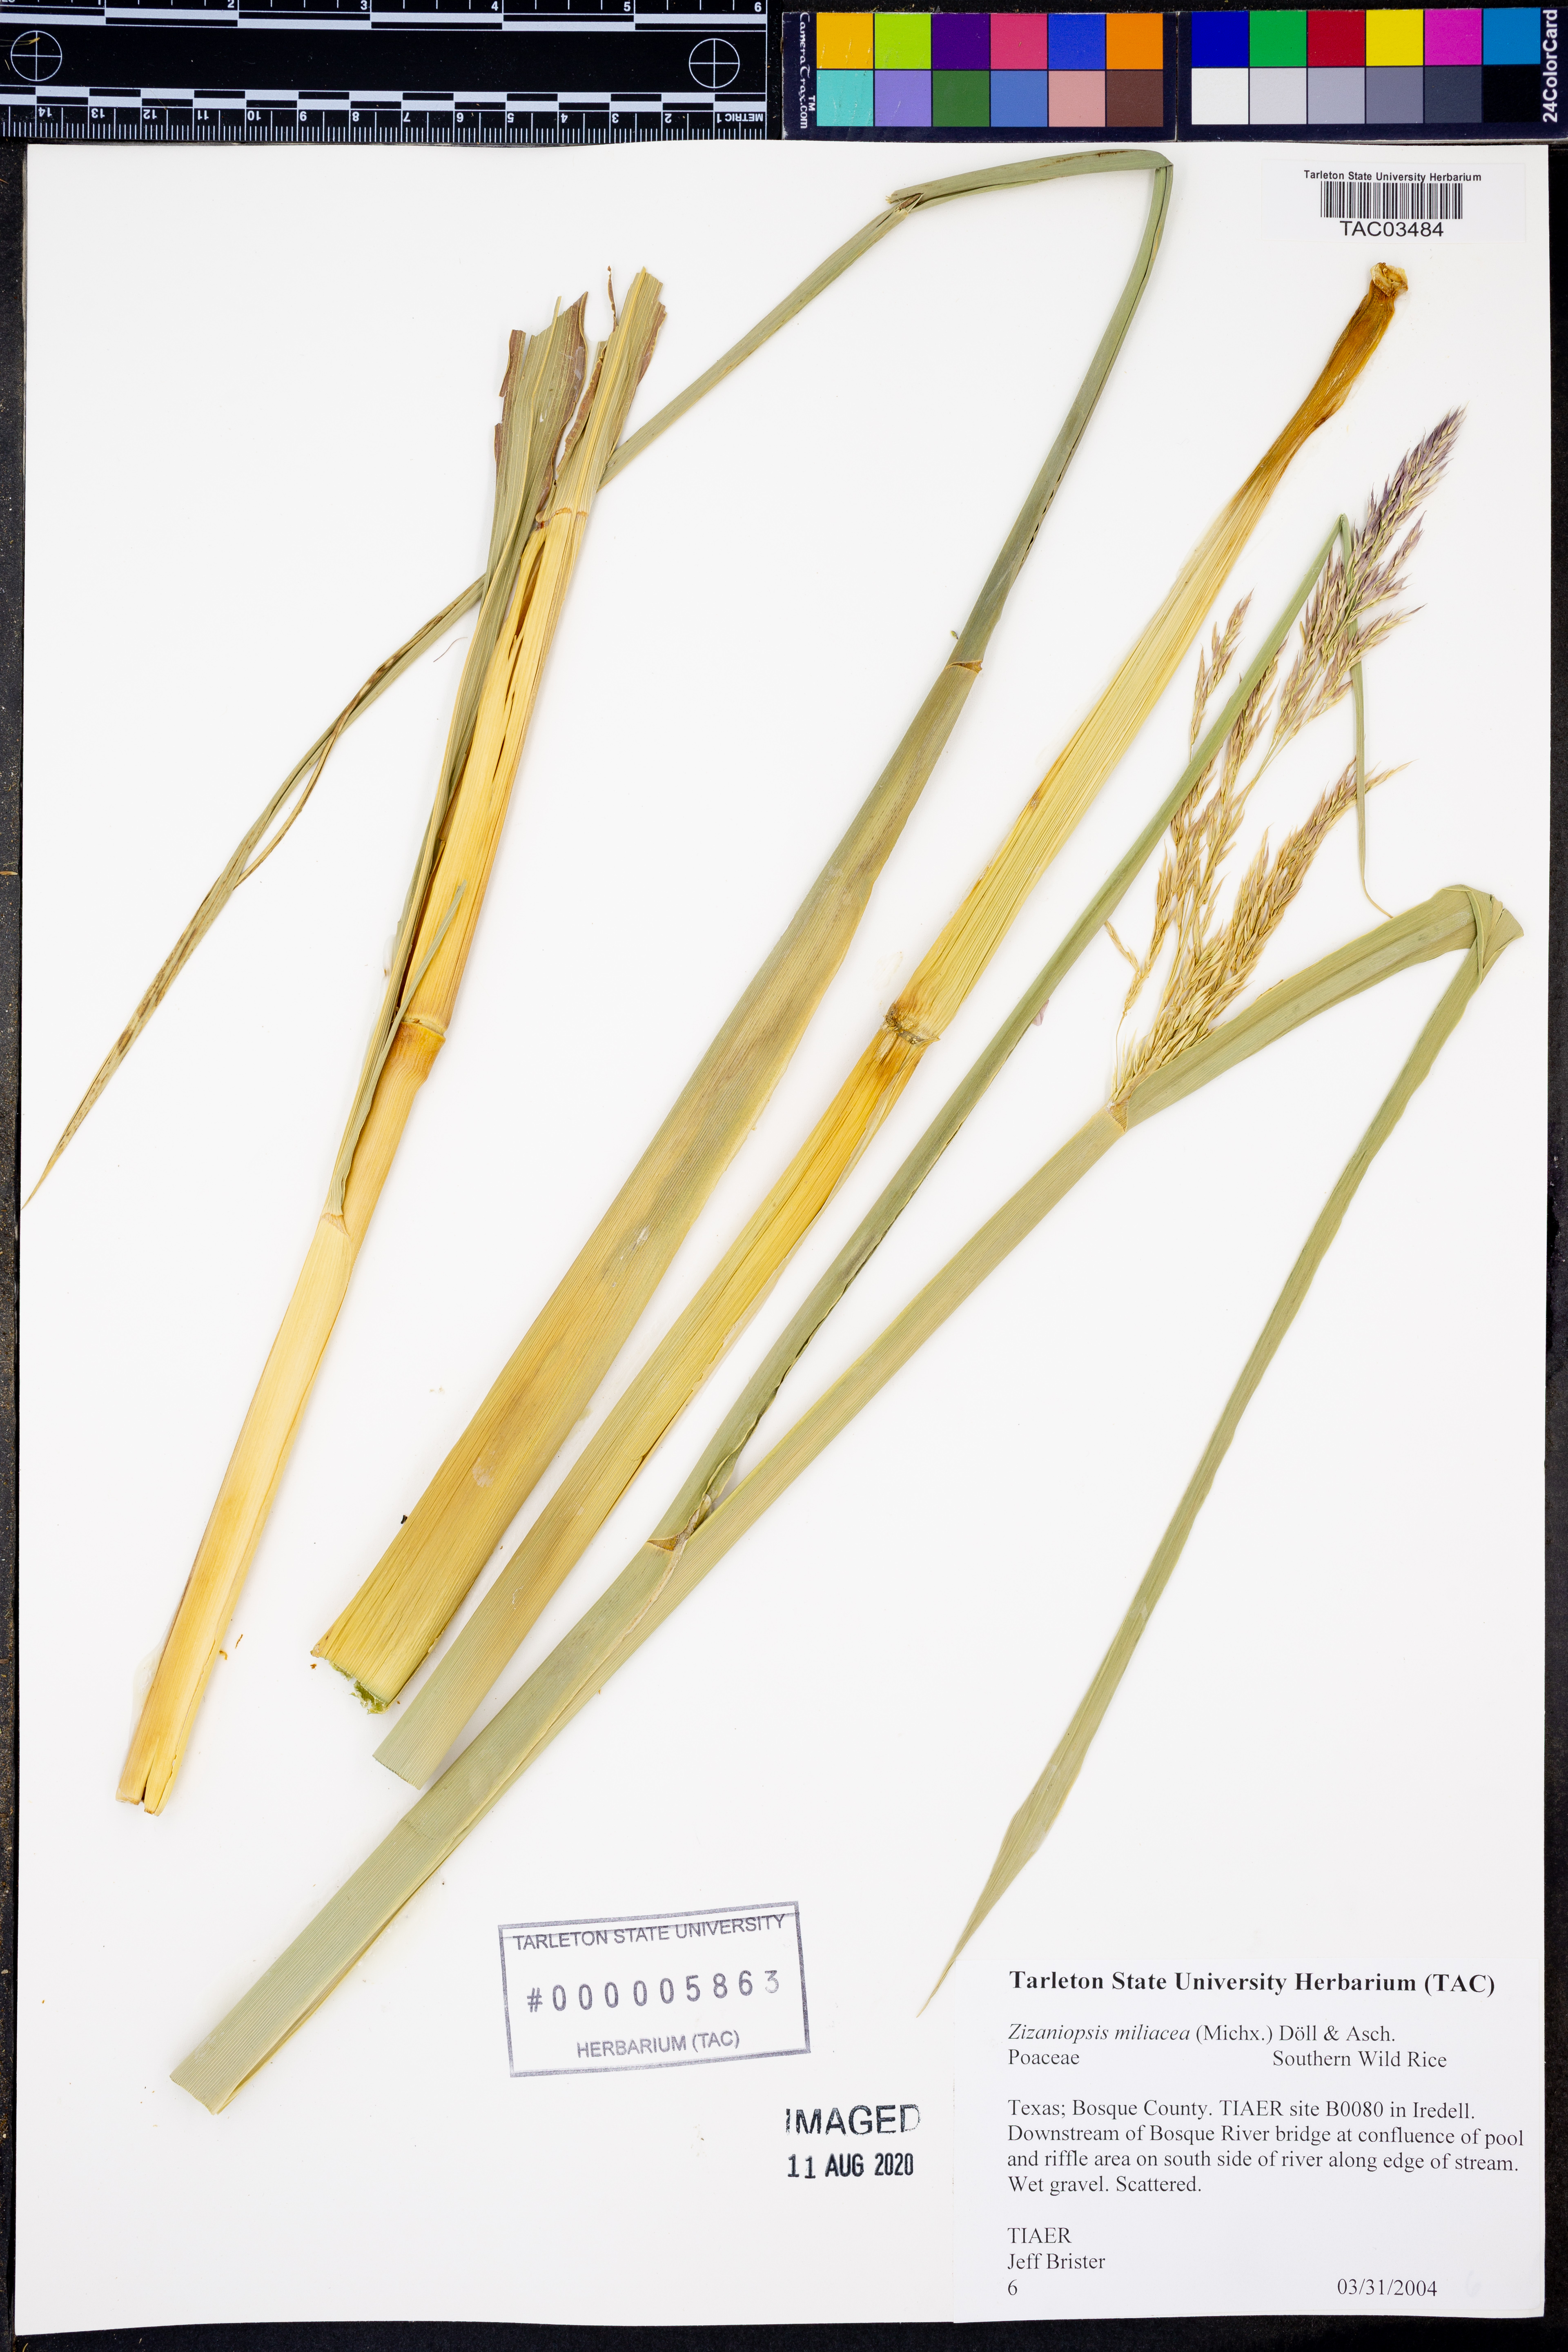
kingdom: Plantae
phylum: Tracheophyta
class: Liliopsida
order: Poales
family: Poaceae
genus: Zizaniopsis
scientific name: Zizaniopsis miliacea
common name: Giant-cutgrass
